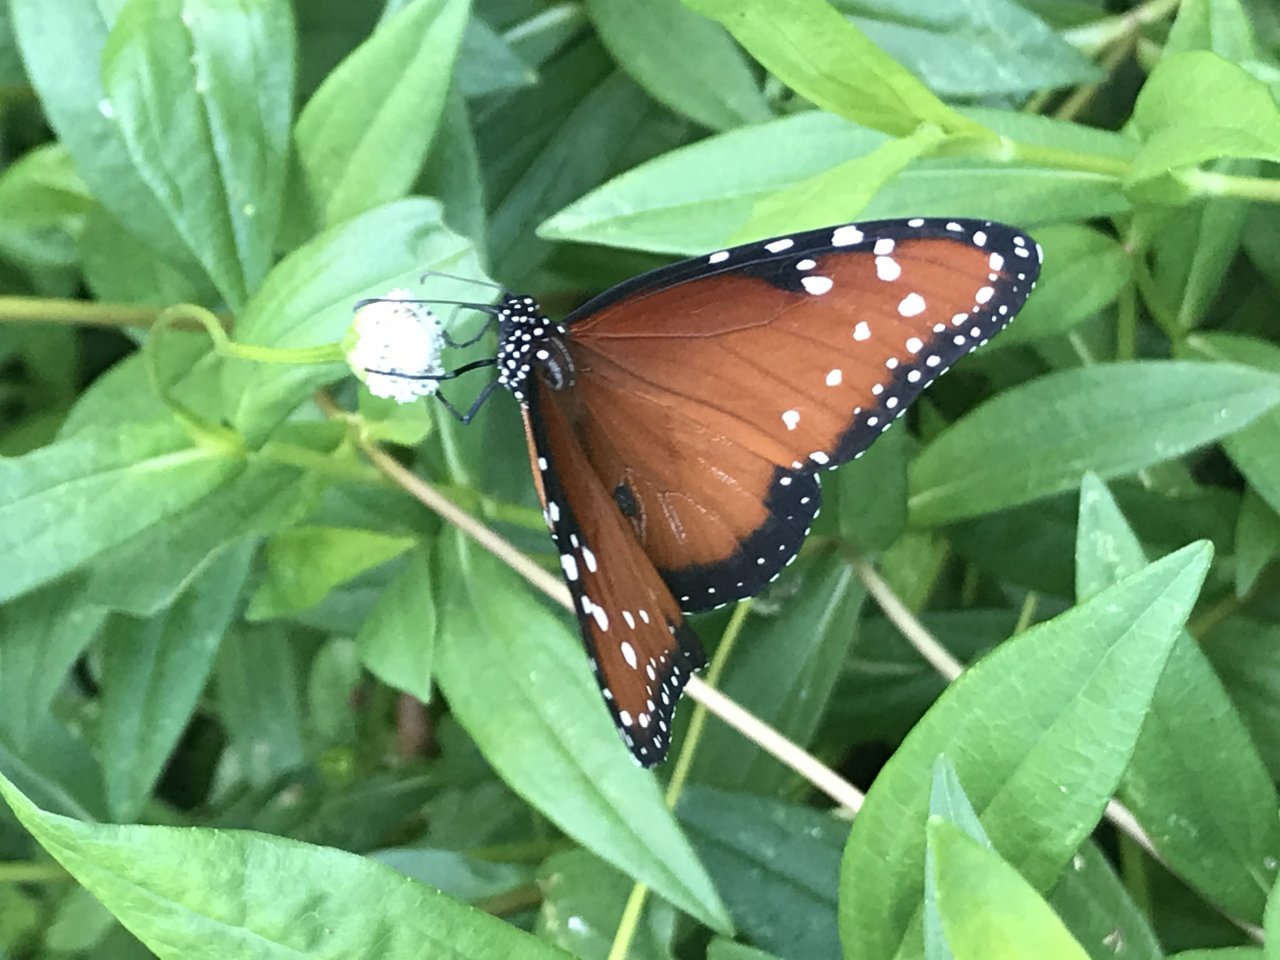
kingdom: Animalia
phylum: Arthropoda
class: Insecta
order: Lepidoptera
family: Nymphalidae
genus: Danaus
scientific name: Danaus gilippus
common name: Queen
